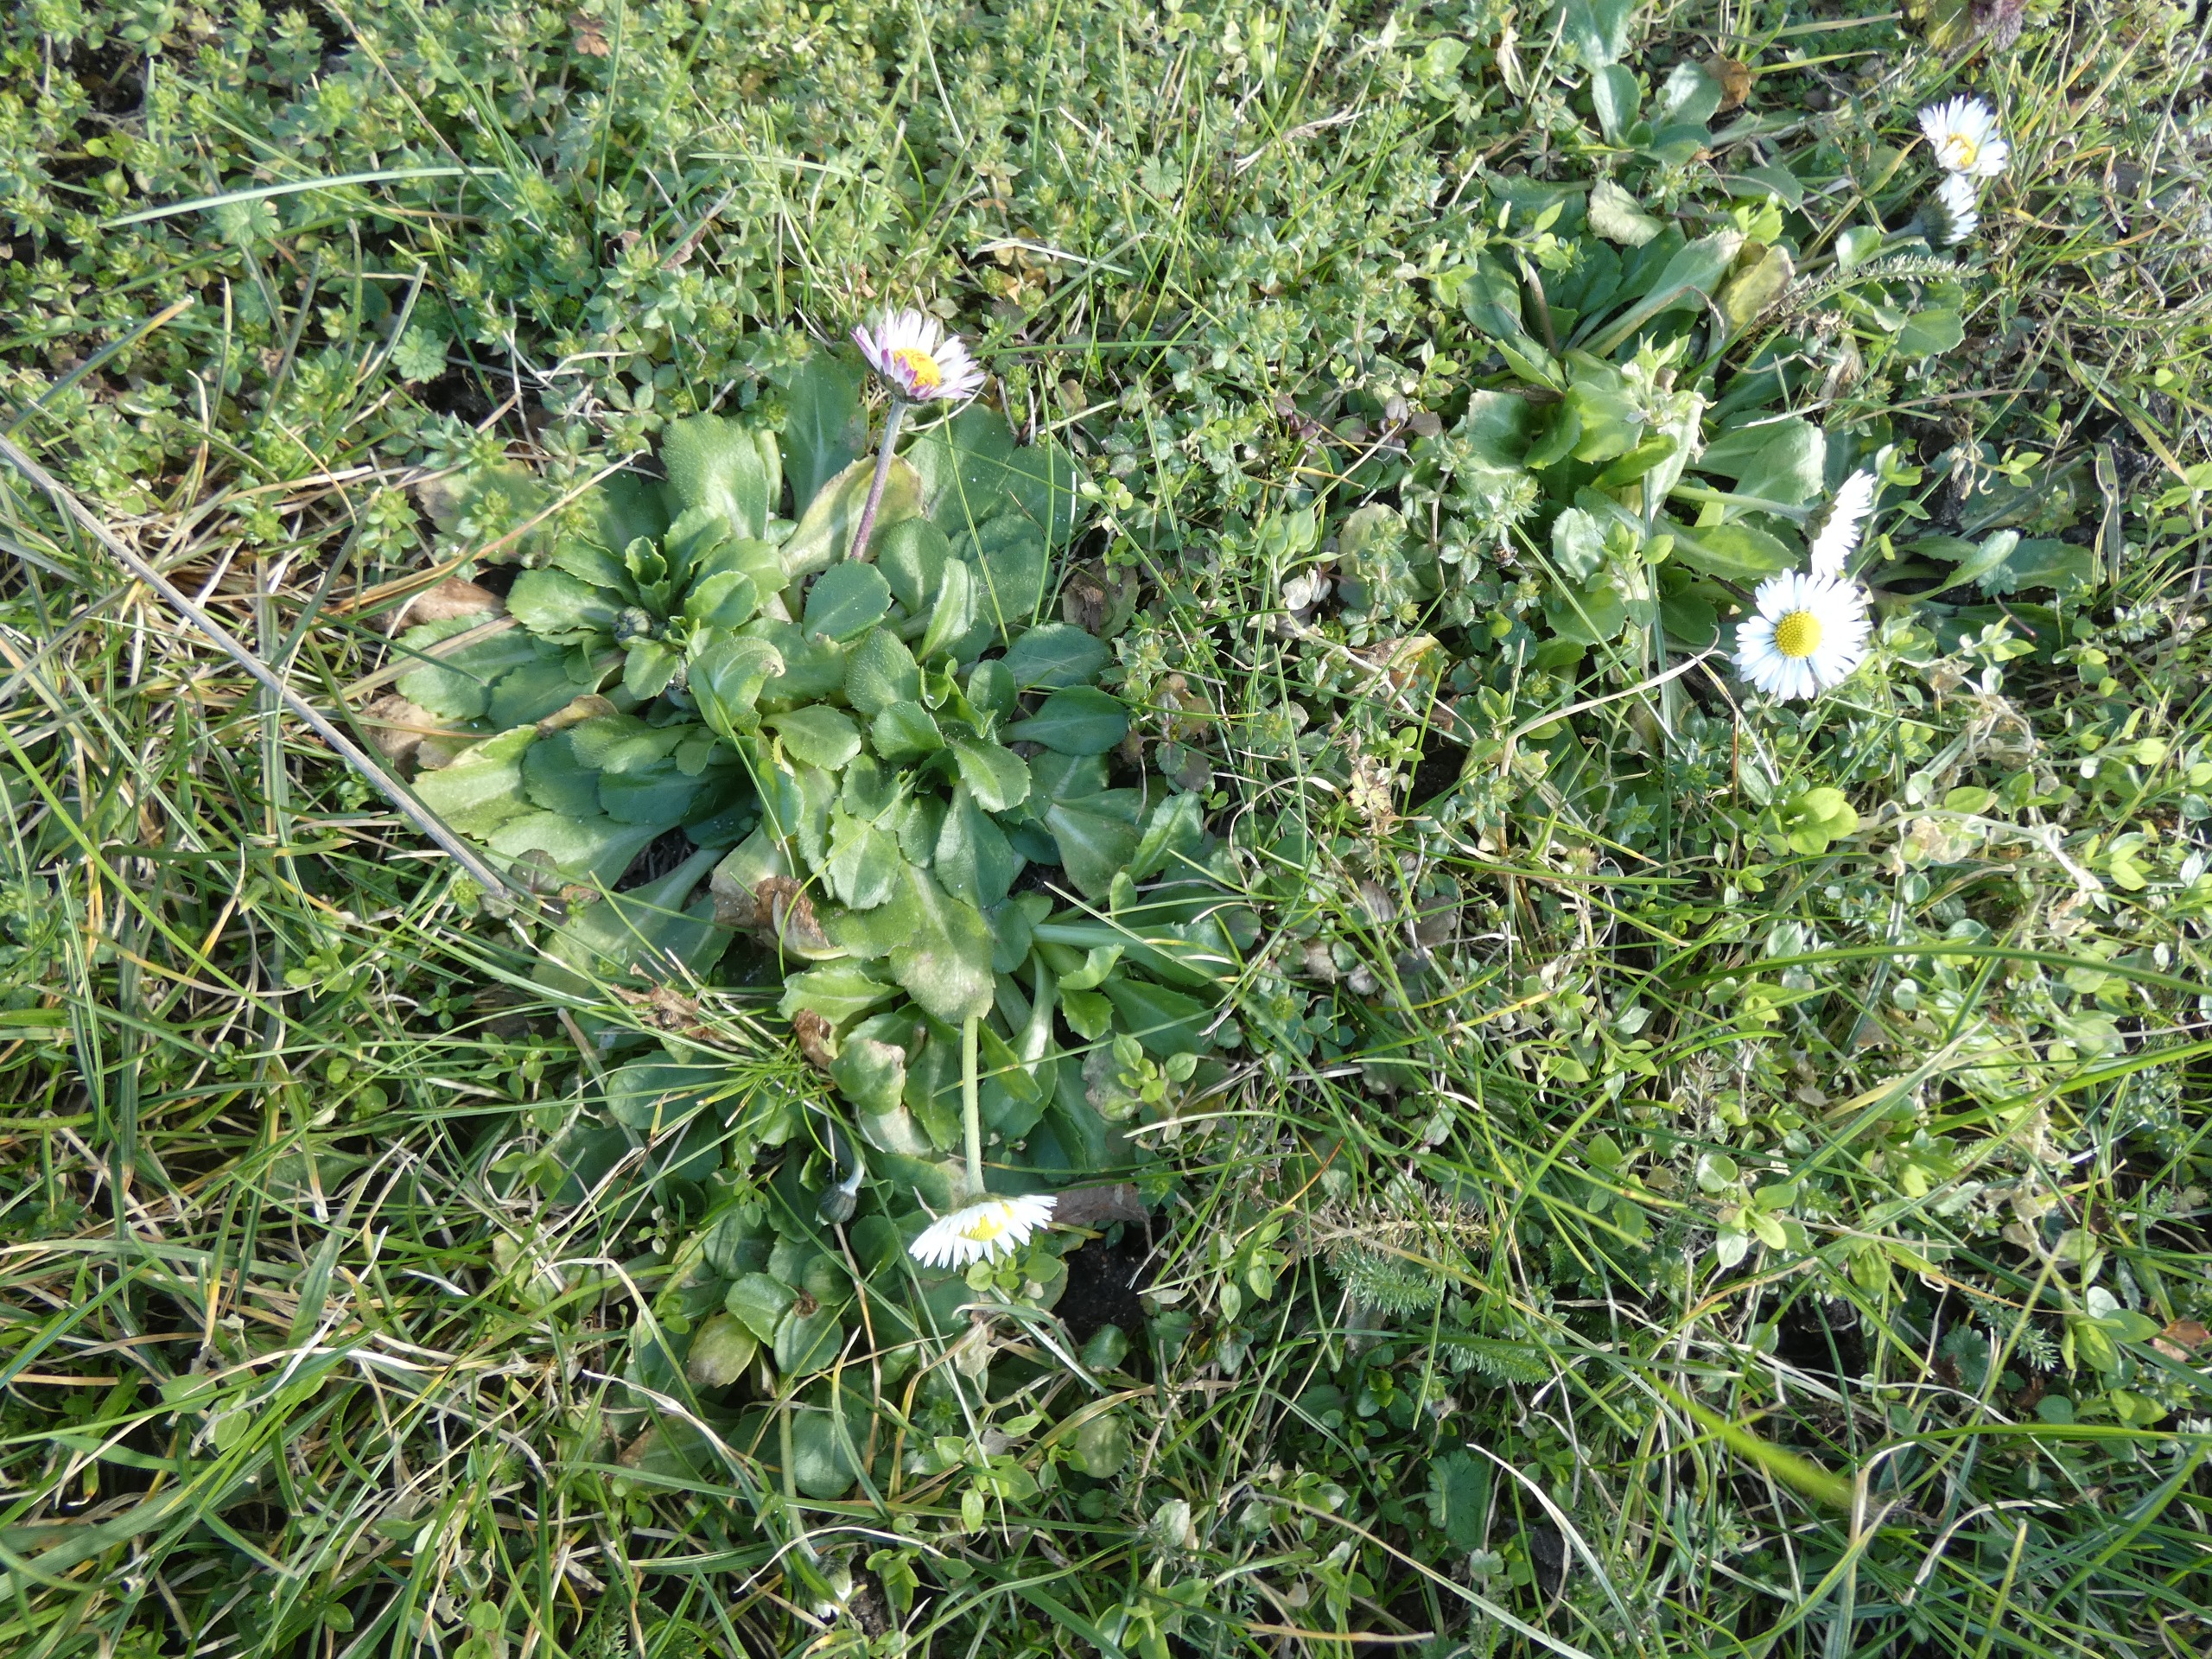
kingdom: Plantae
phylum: Tracheophyta
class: Magnoliopsida
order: Asterales
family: Asteraceae
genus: Bellis
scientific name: Bellis perennis
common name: Tusindfryd
